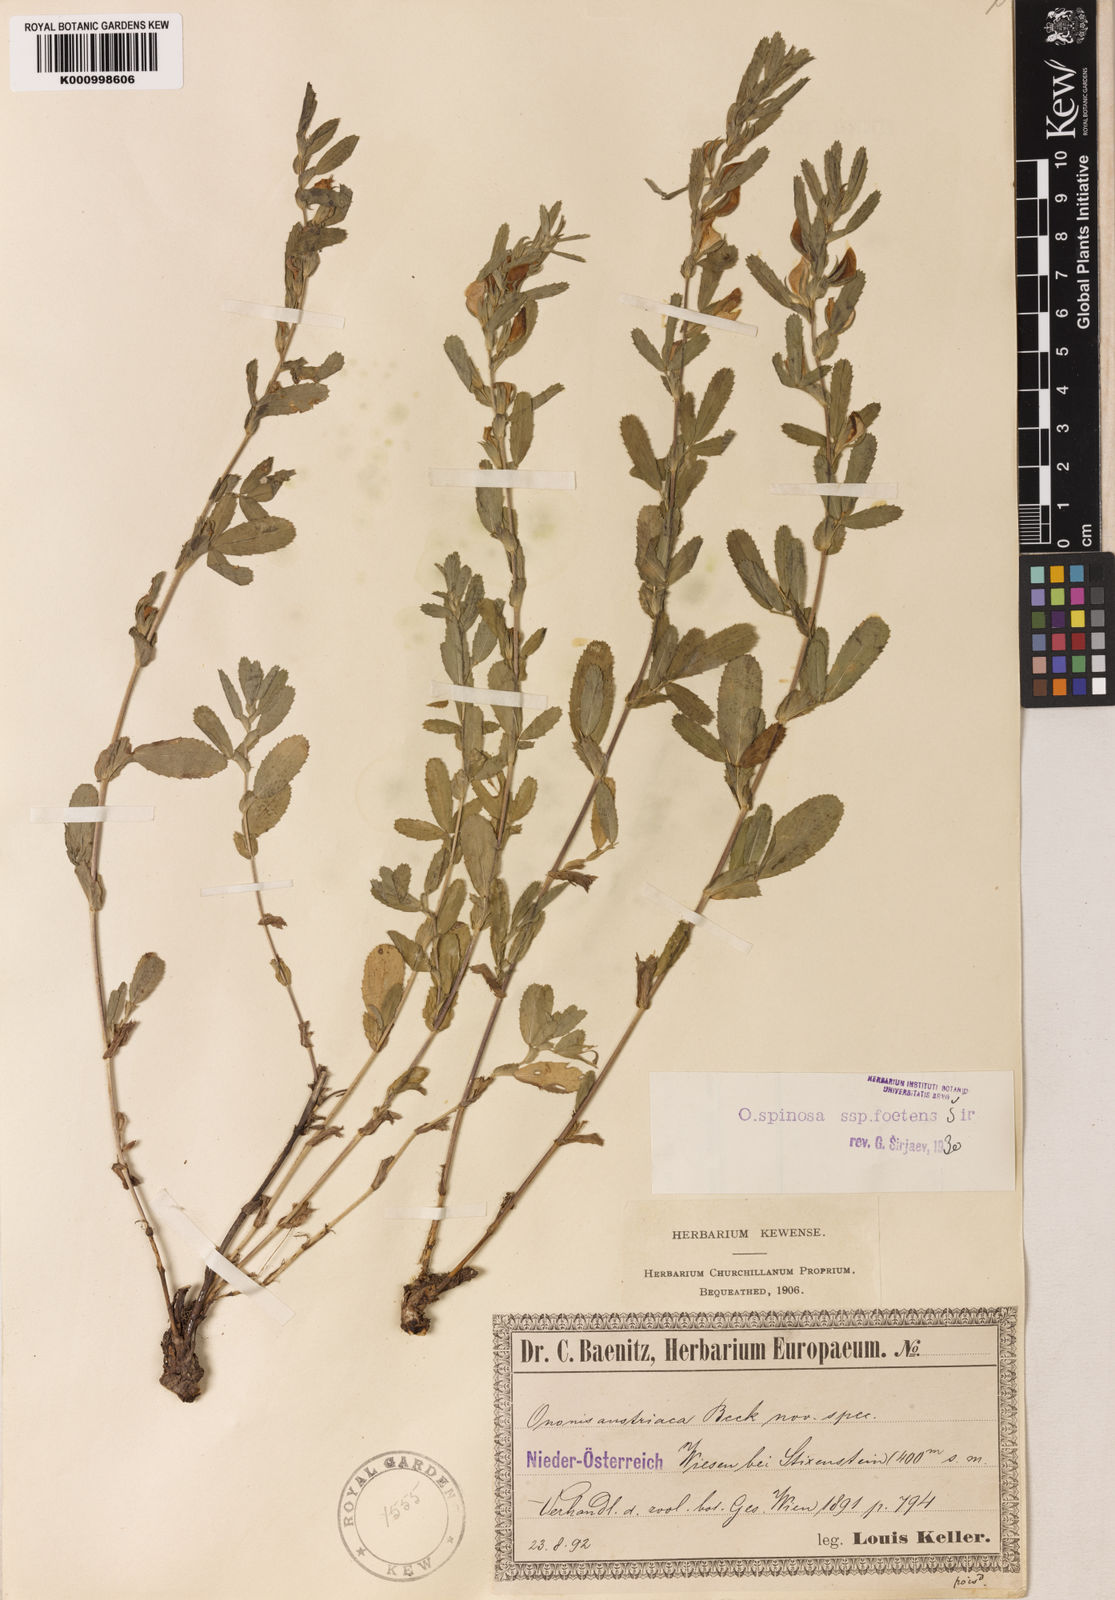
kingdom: Plantae
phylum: Tracheophyta
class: Magnoliopsida
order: Fabales
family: Fabaceae
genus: Ononis
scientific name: Ononis spinosa
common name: Spiny restharrow
